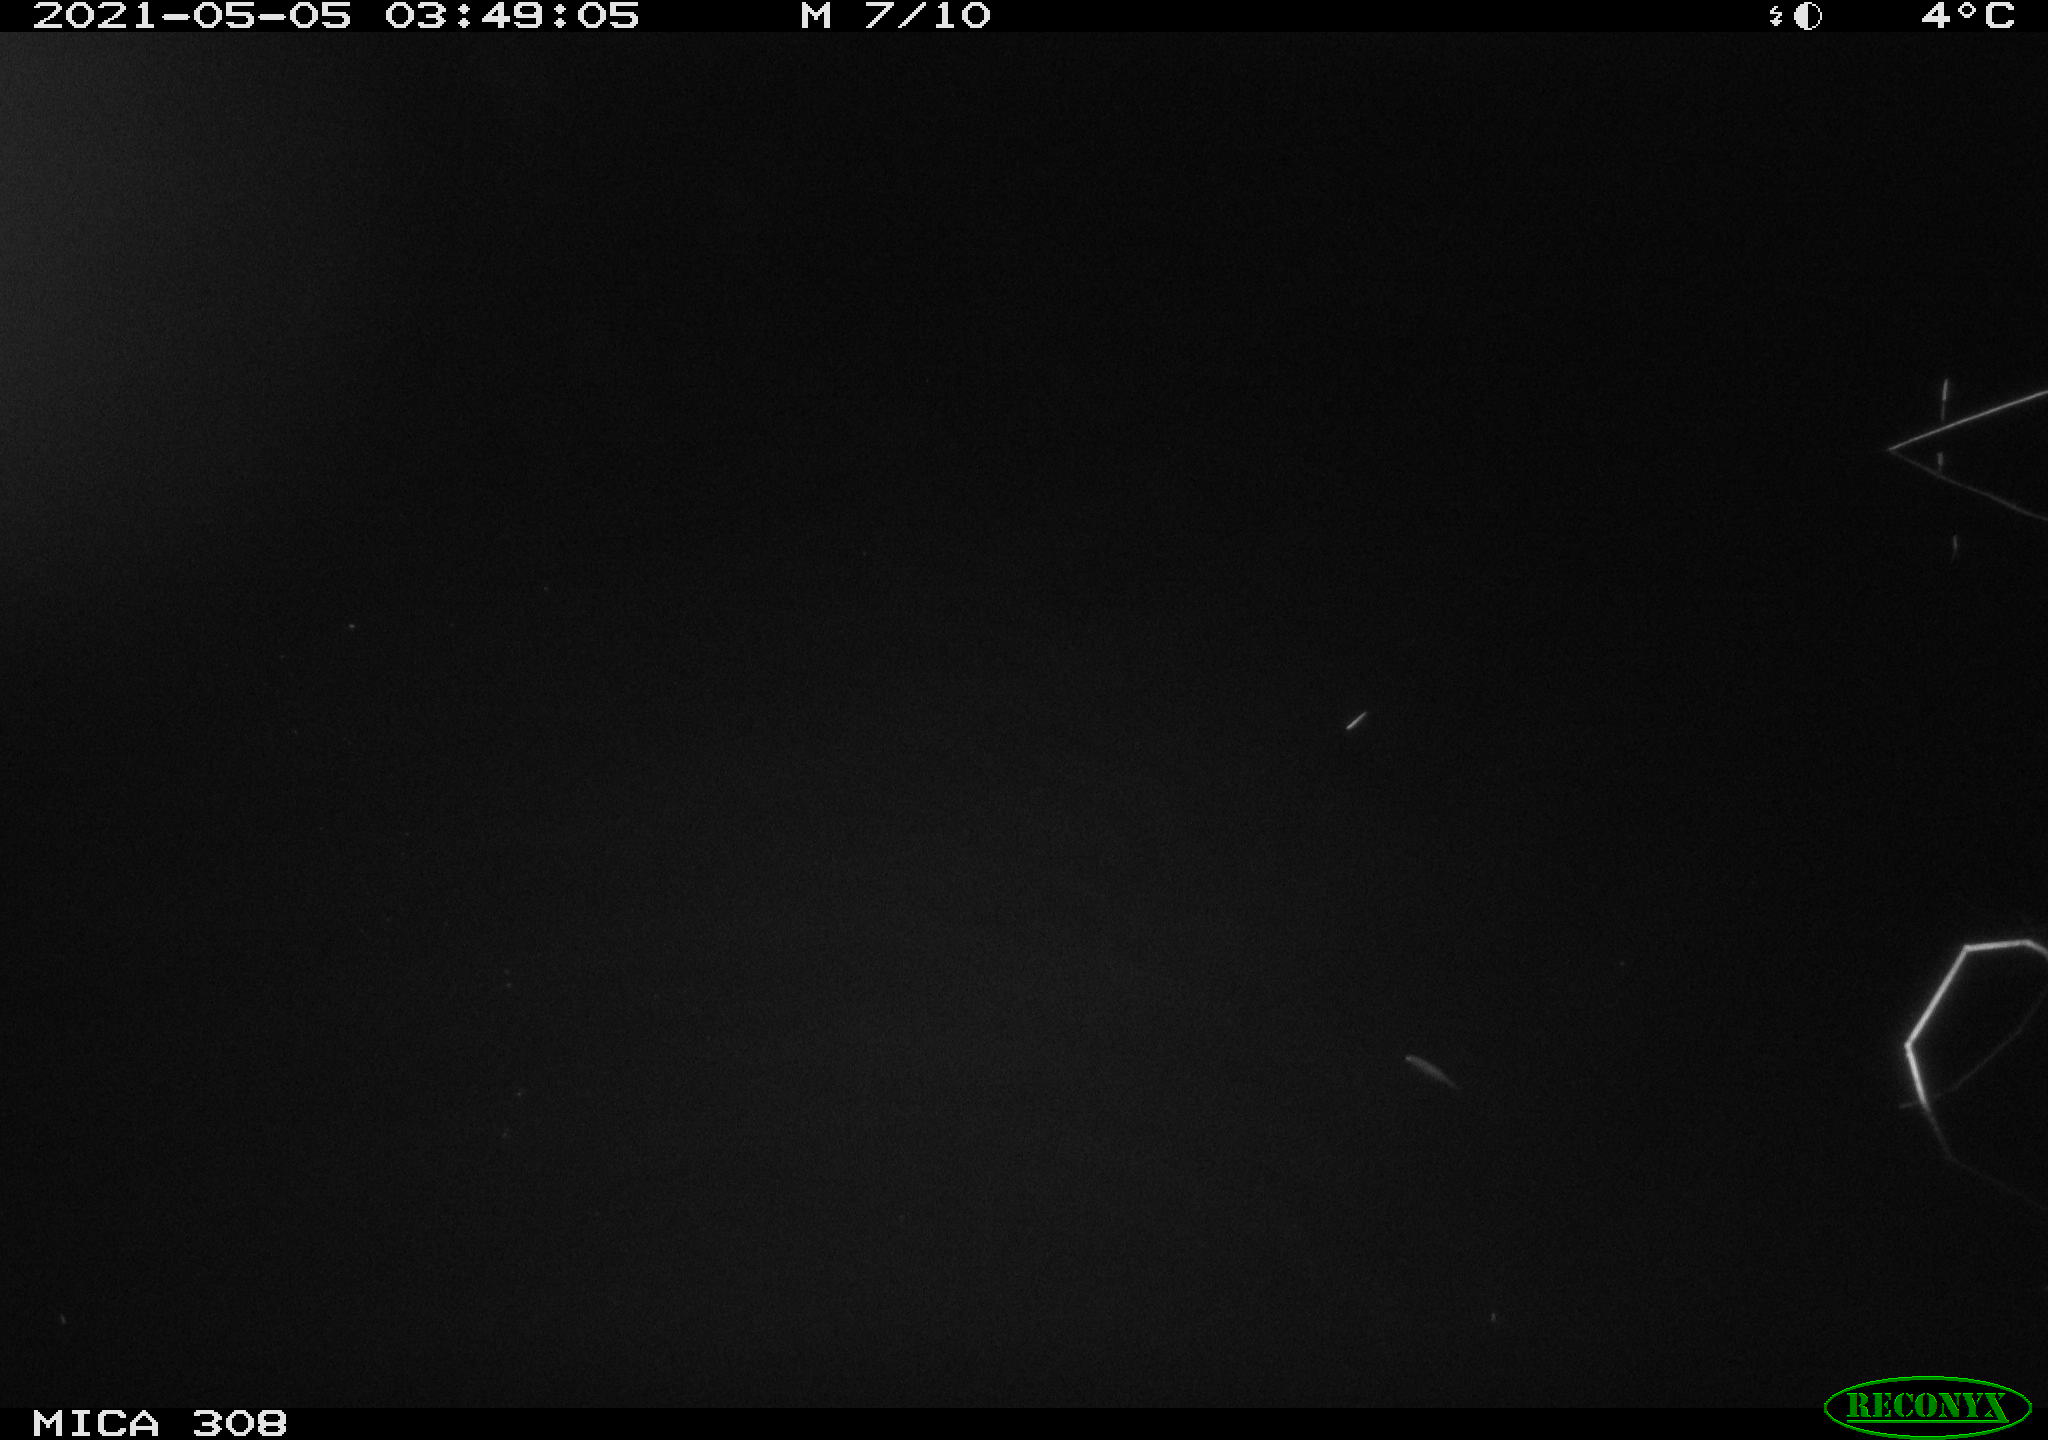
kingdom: Animalia
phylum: Chordata
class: Mammalia
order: Rodentia
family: Cricetidae
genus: Ondatra
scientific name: Ondatra zibethicus
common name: Muskrat
